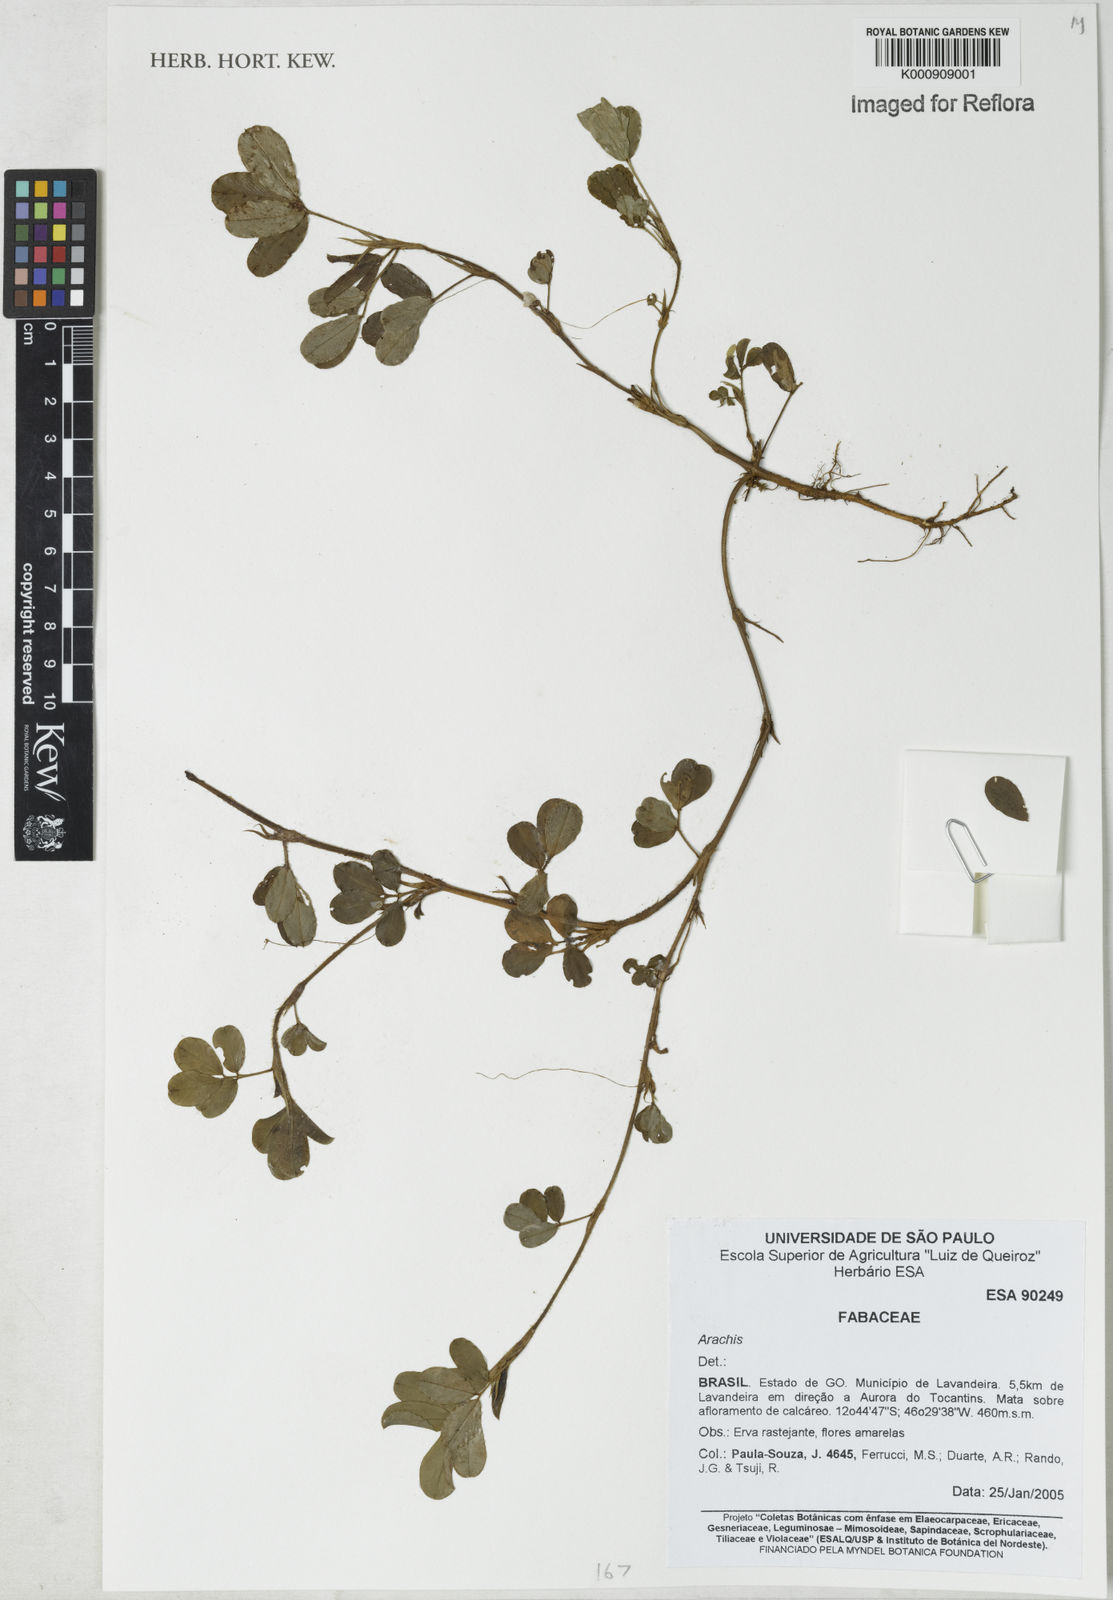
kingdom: Plantae
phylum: Tracheophyta
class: Magnoliopsida
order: Fabales
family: Fabaceae
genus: Arachis
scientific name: Arachis
